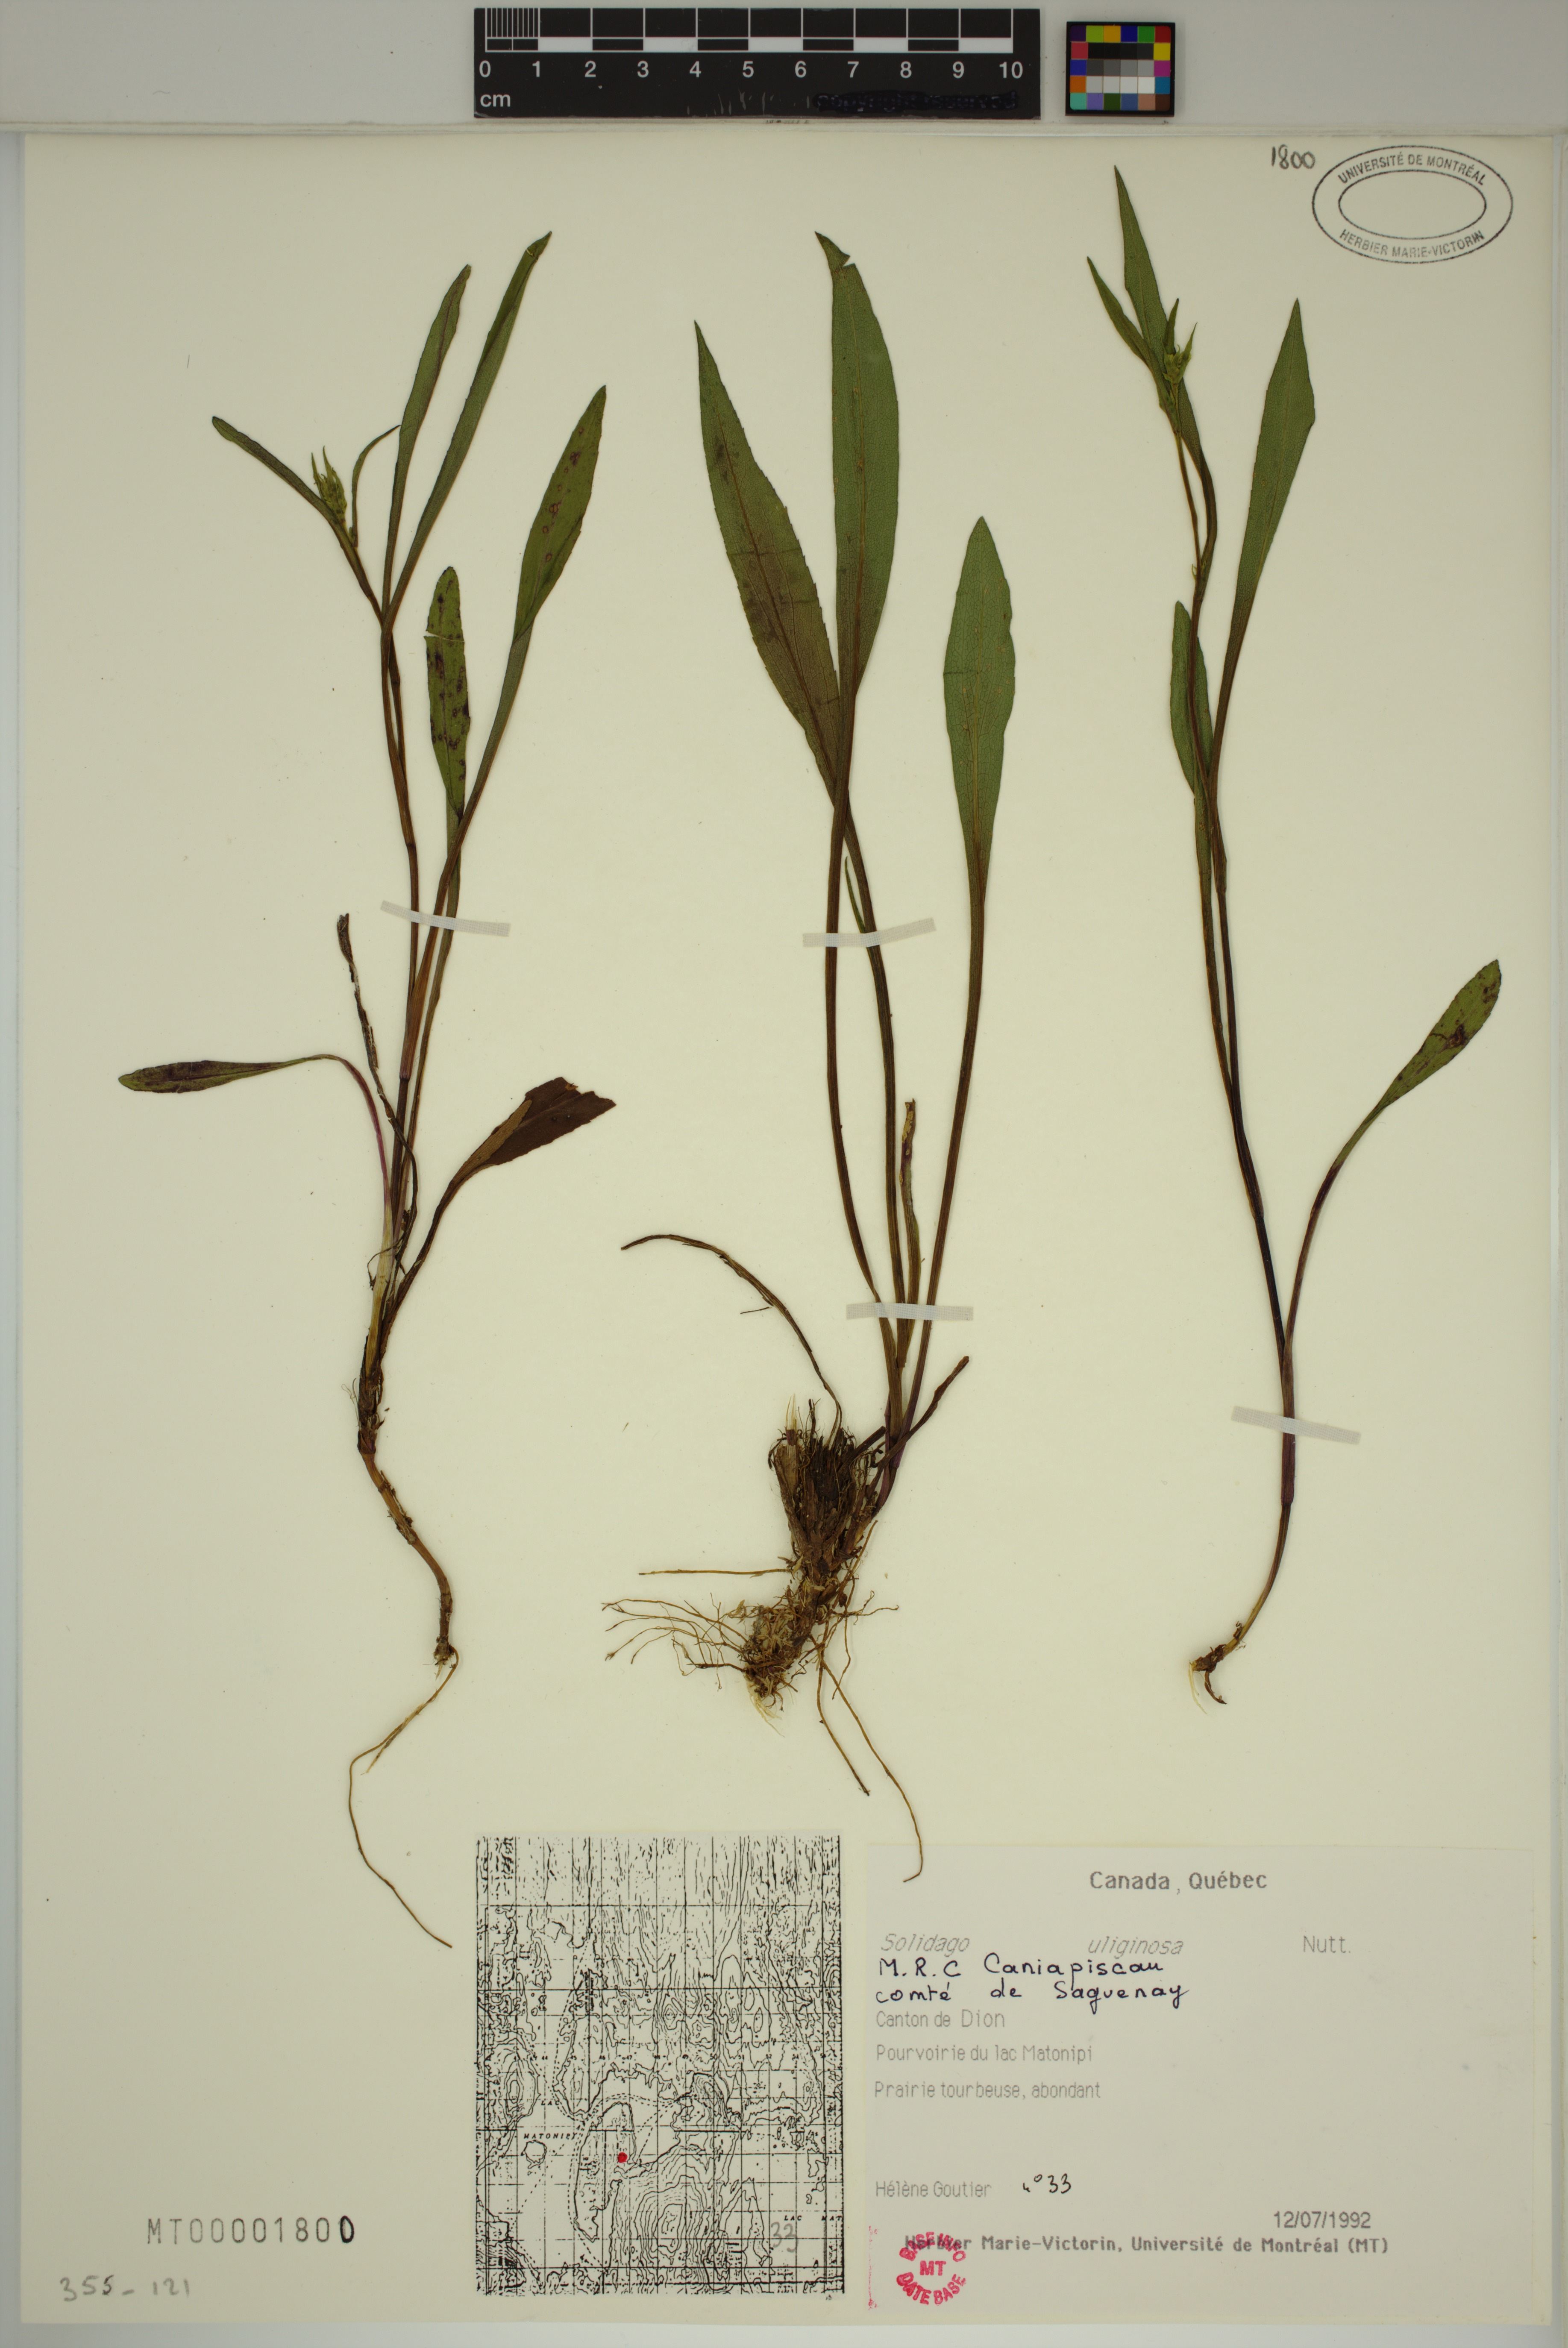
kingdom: Plantae
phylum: Tracheophyta
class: Magnoliopsida
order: Asterales
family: Asteraceae
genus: Solidago
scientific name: Solidago uliginosa
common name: Bog goldenrod
